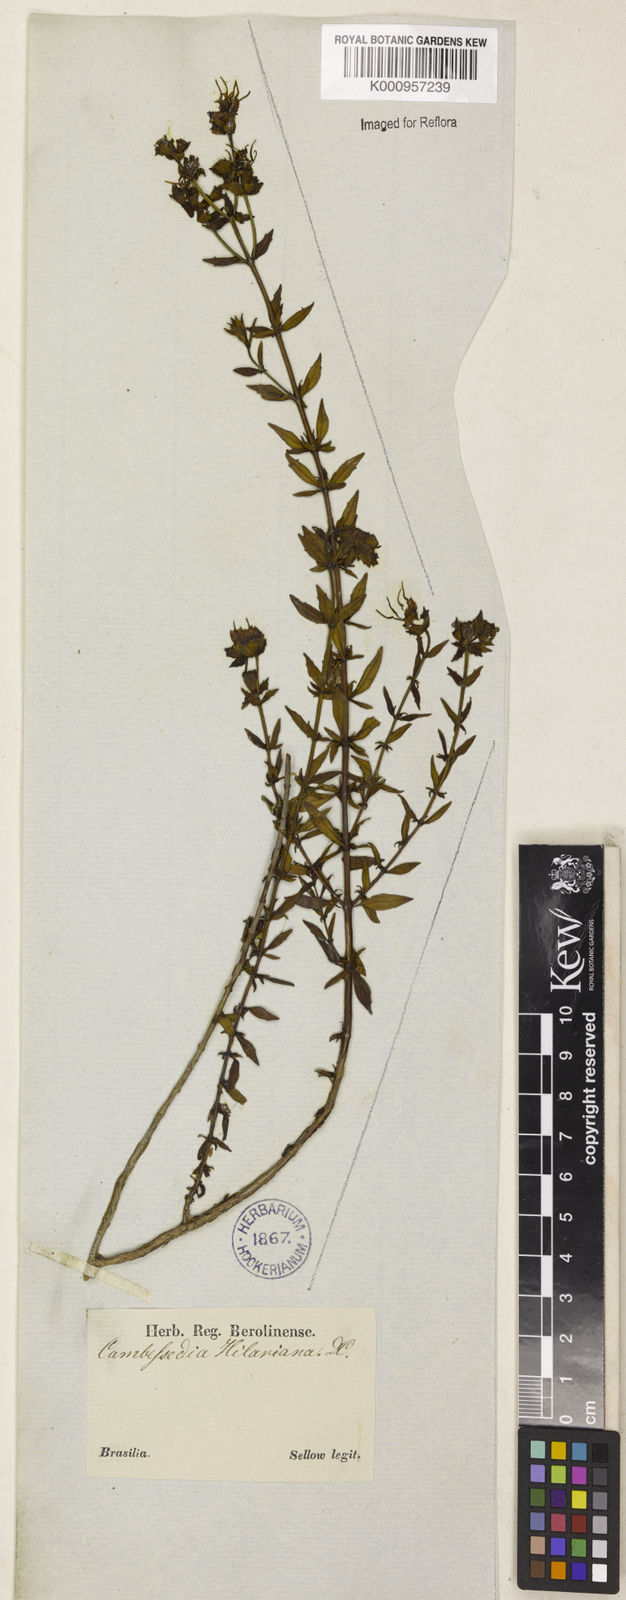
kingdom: Plantae
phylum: Tracheophyta
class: Magnoliopsida
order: Myrtales
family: Melastomataceae
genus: Cambessedesia
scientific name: Cambessedesia hilariana
